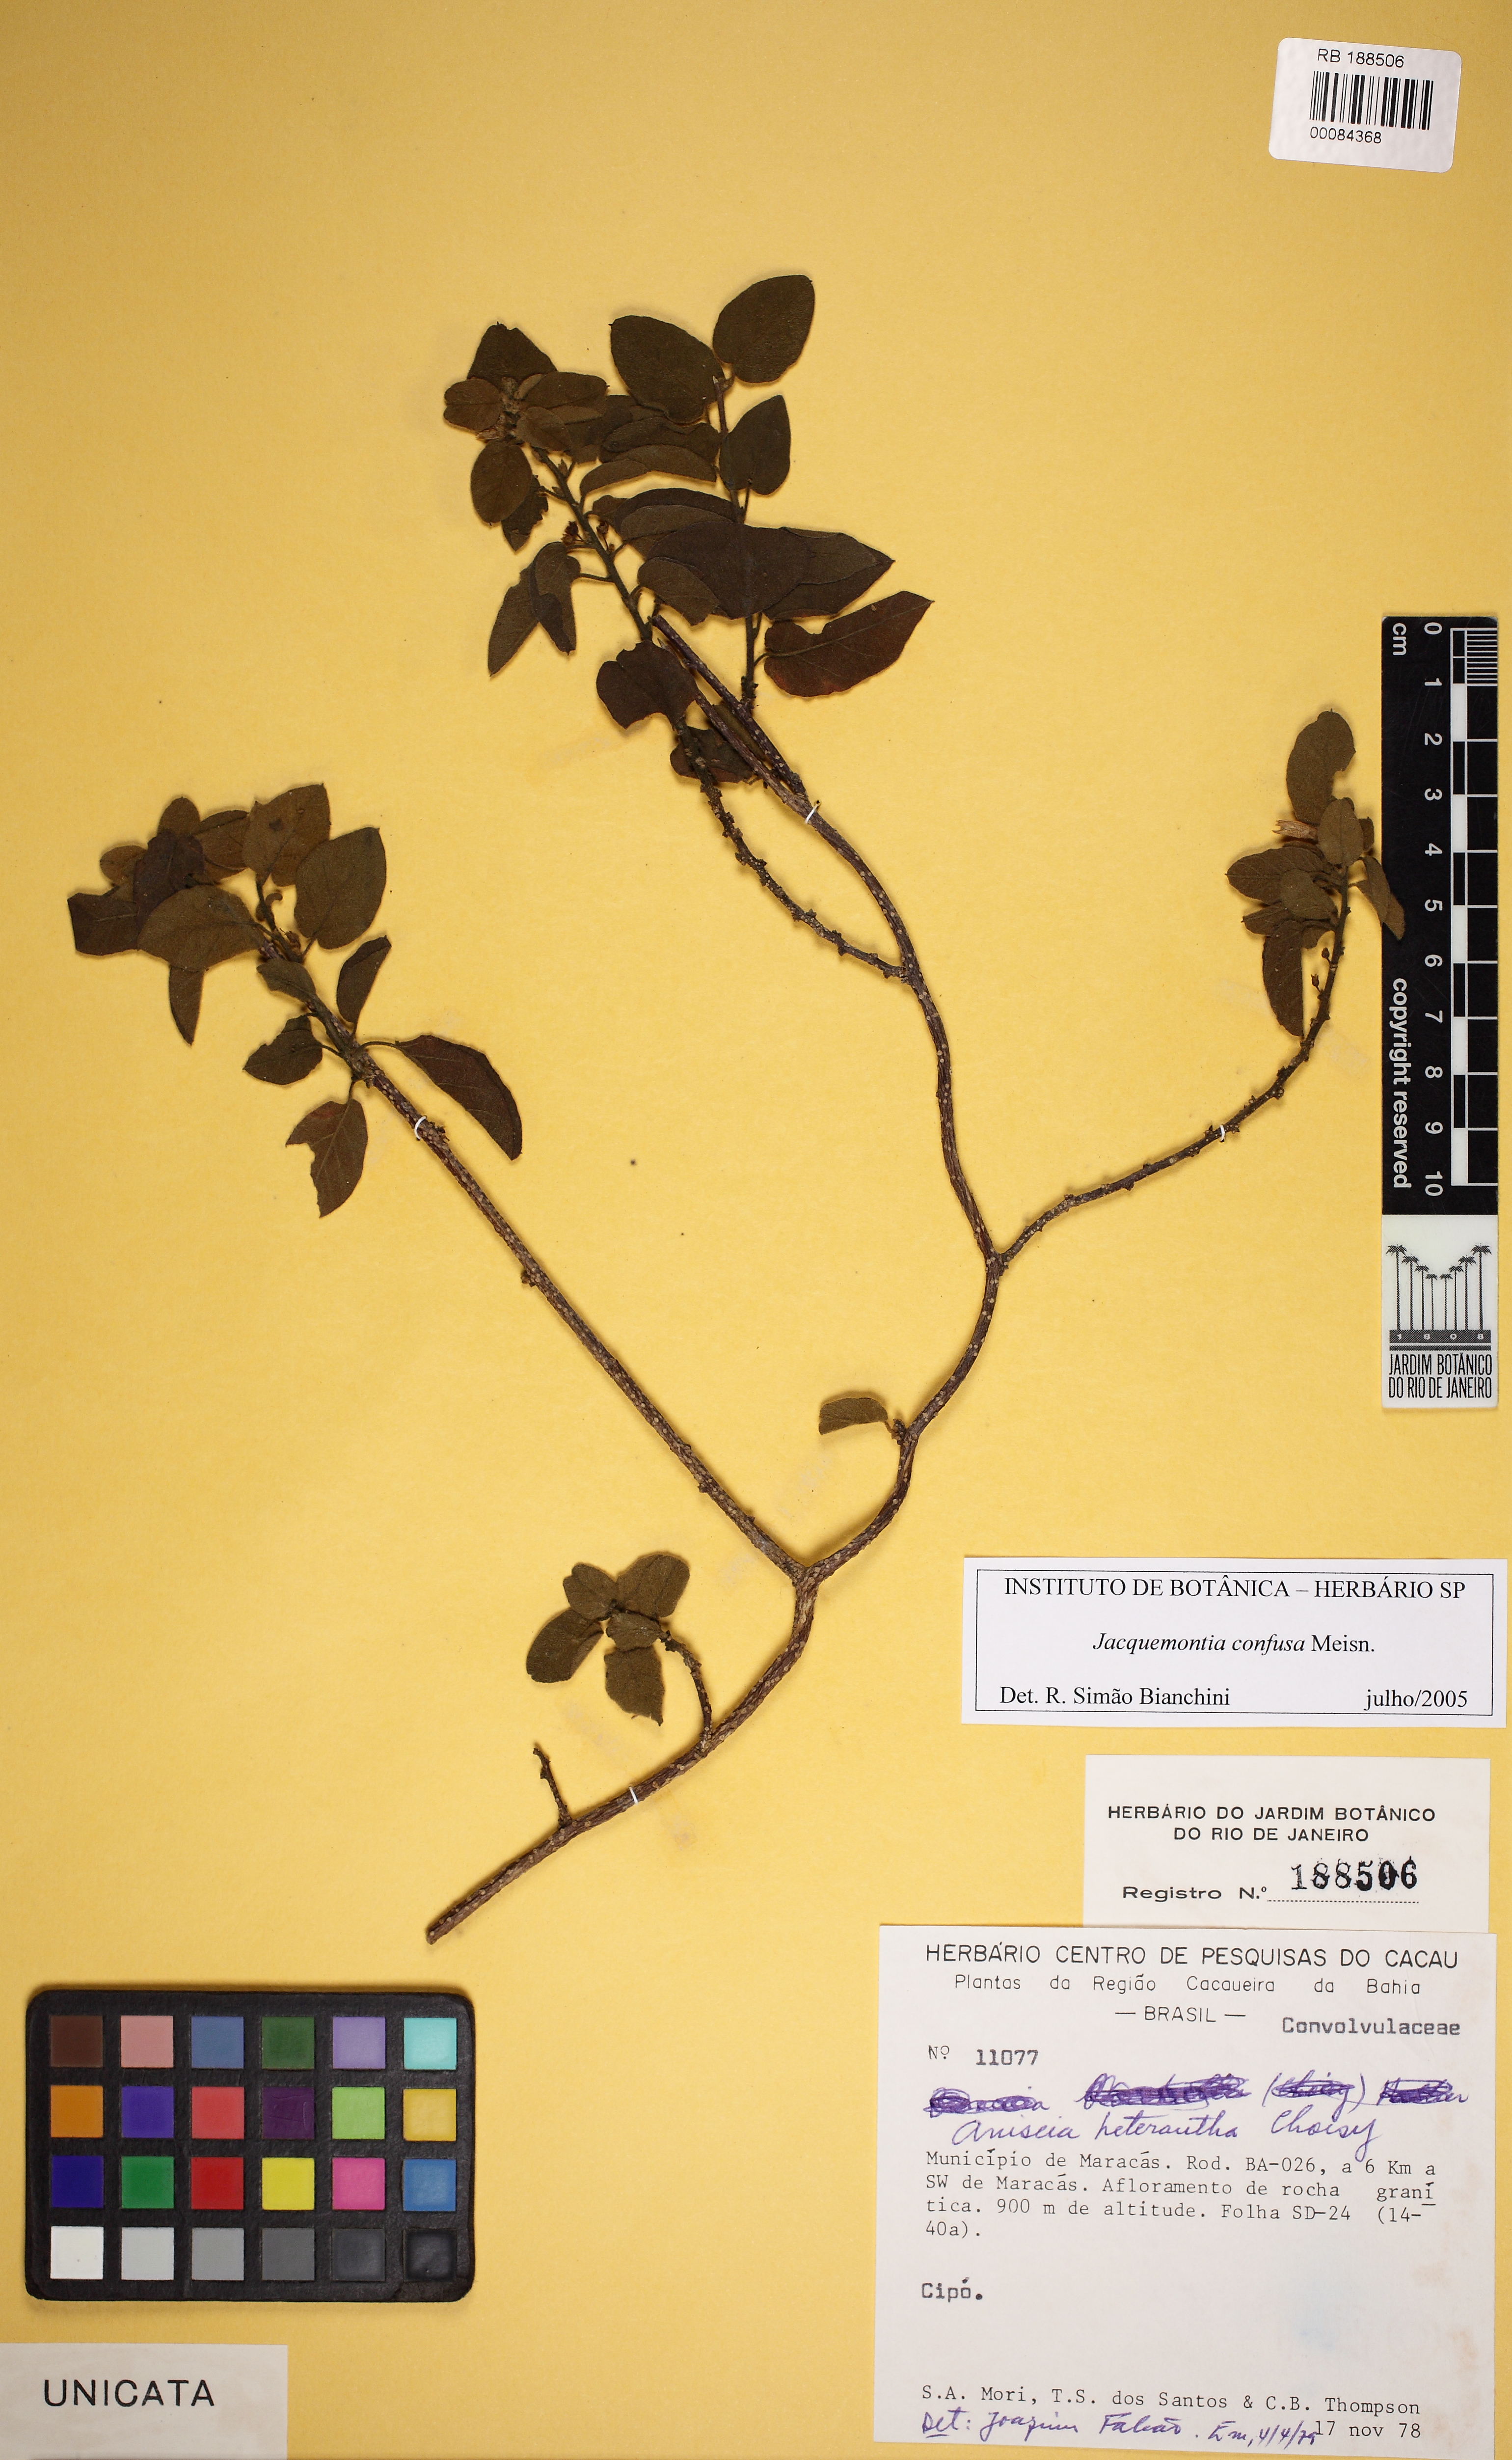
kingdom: Plantae
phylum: Tracheophyta
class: Magnoliopsida
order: Solanales
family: Convolvulaceae
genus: Jacquemontia
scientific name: Jacquemontia nodiflora
